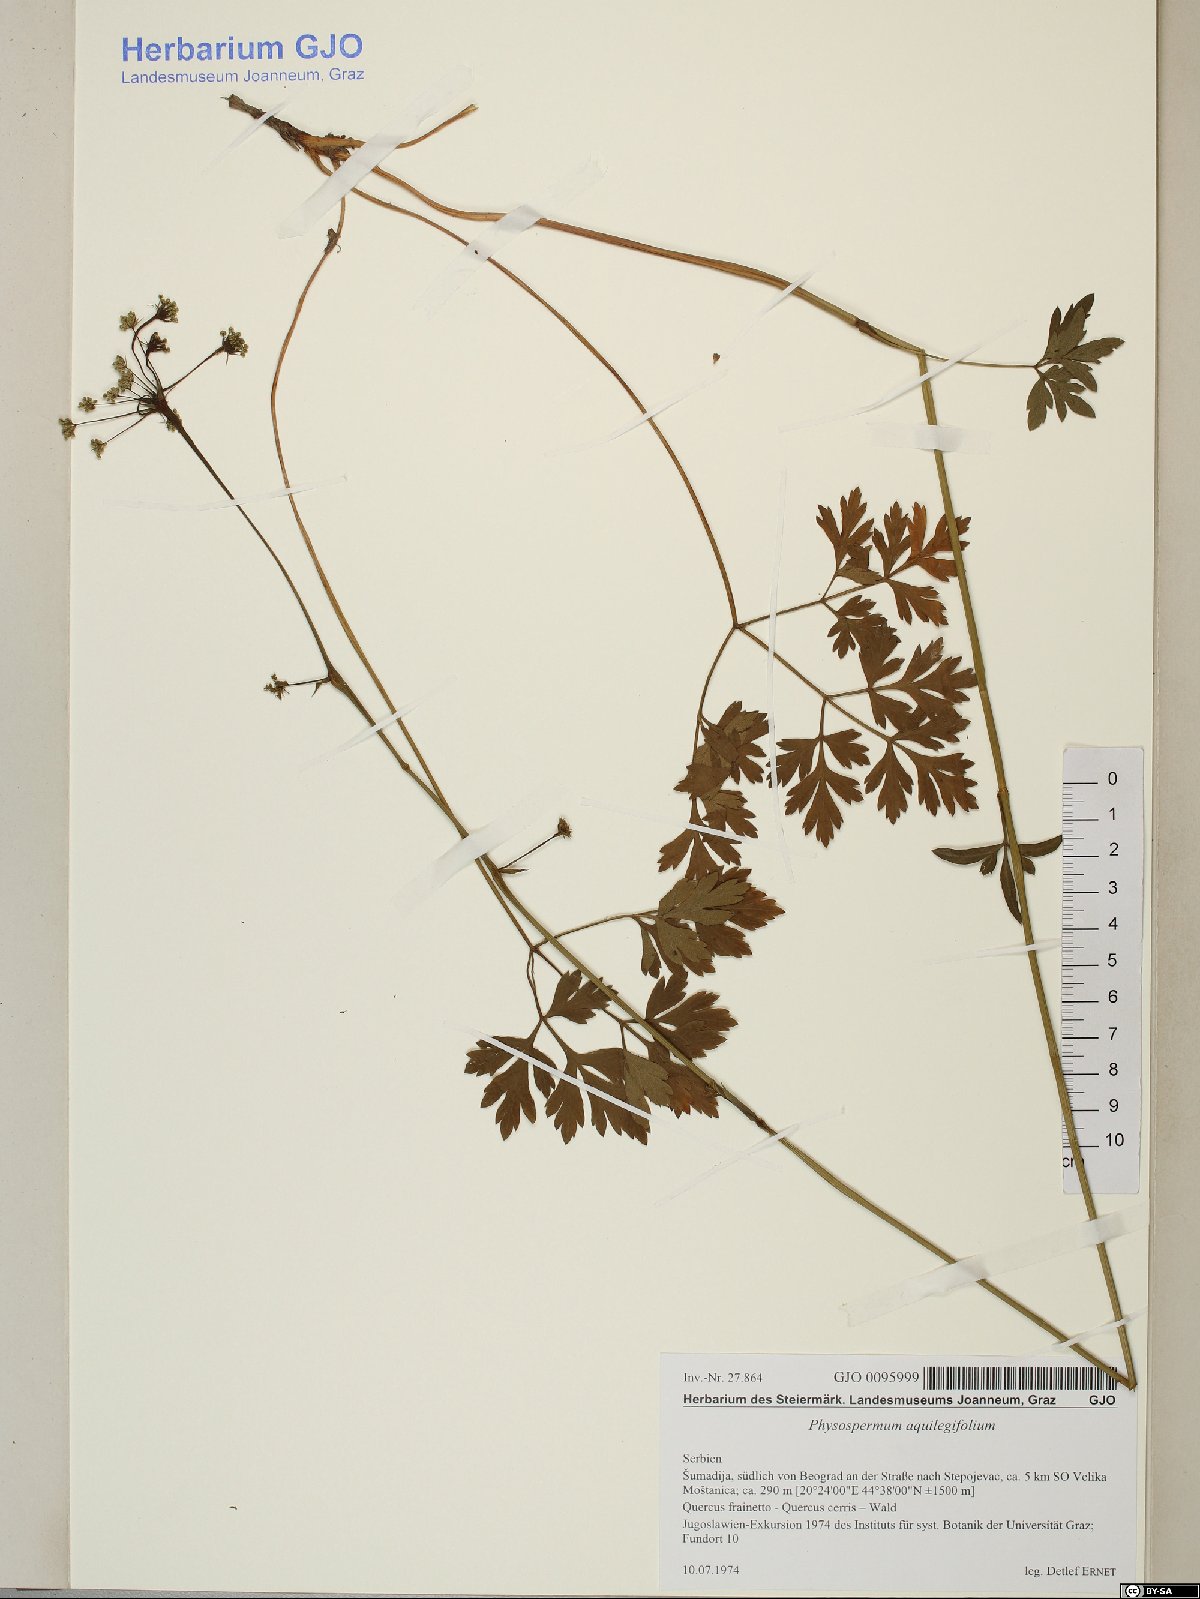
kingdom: Plantae
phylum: Tracheophyta
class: Magnoliopsida
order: Apiales
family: Apiaceae
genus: Physospermum
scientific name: Physospermum cornubiense
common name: Bladderseed
